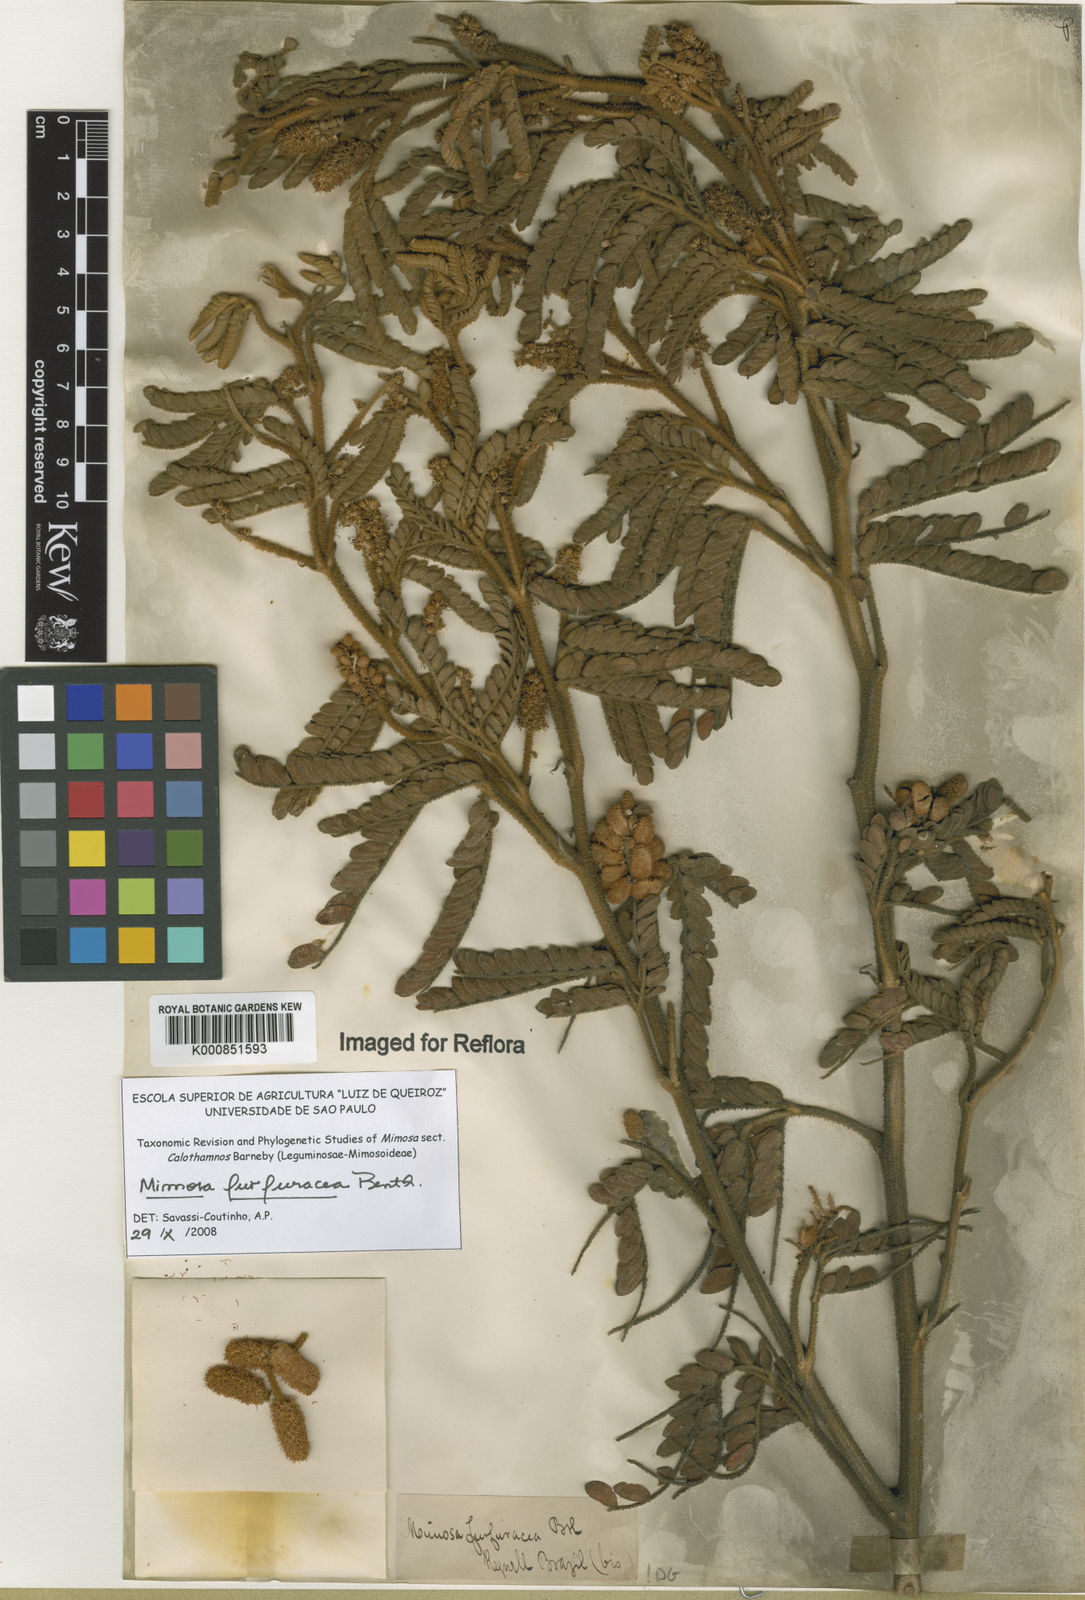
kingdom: Plantae
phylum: Tracheophyta
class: Magnoliopsida
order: Fabales
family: Fabaceae
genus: Mimosa
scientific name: Mimosa furfuracea
